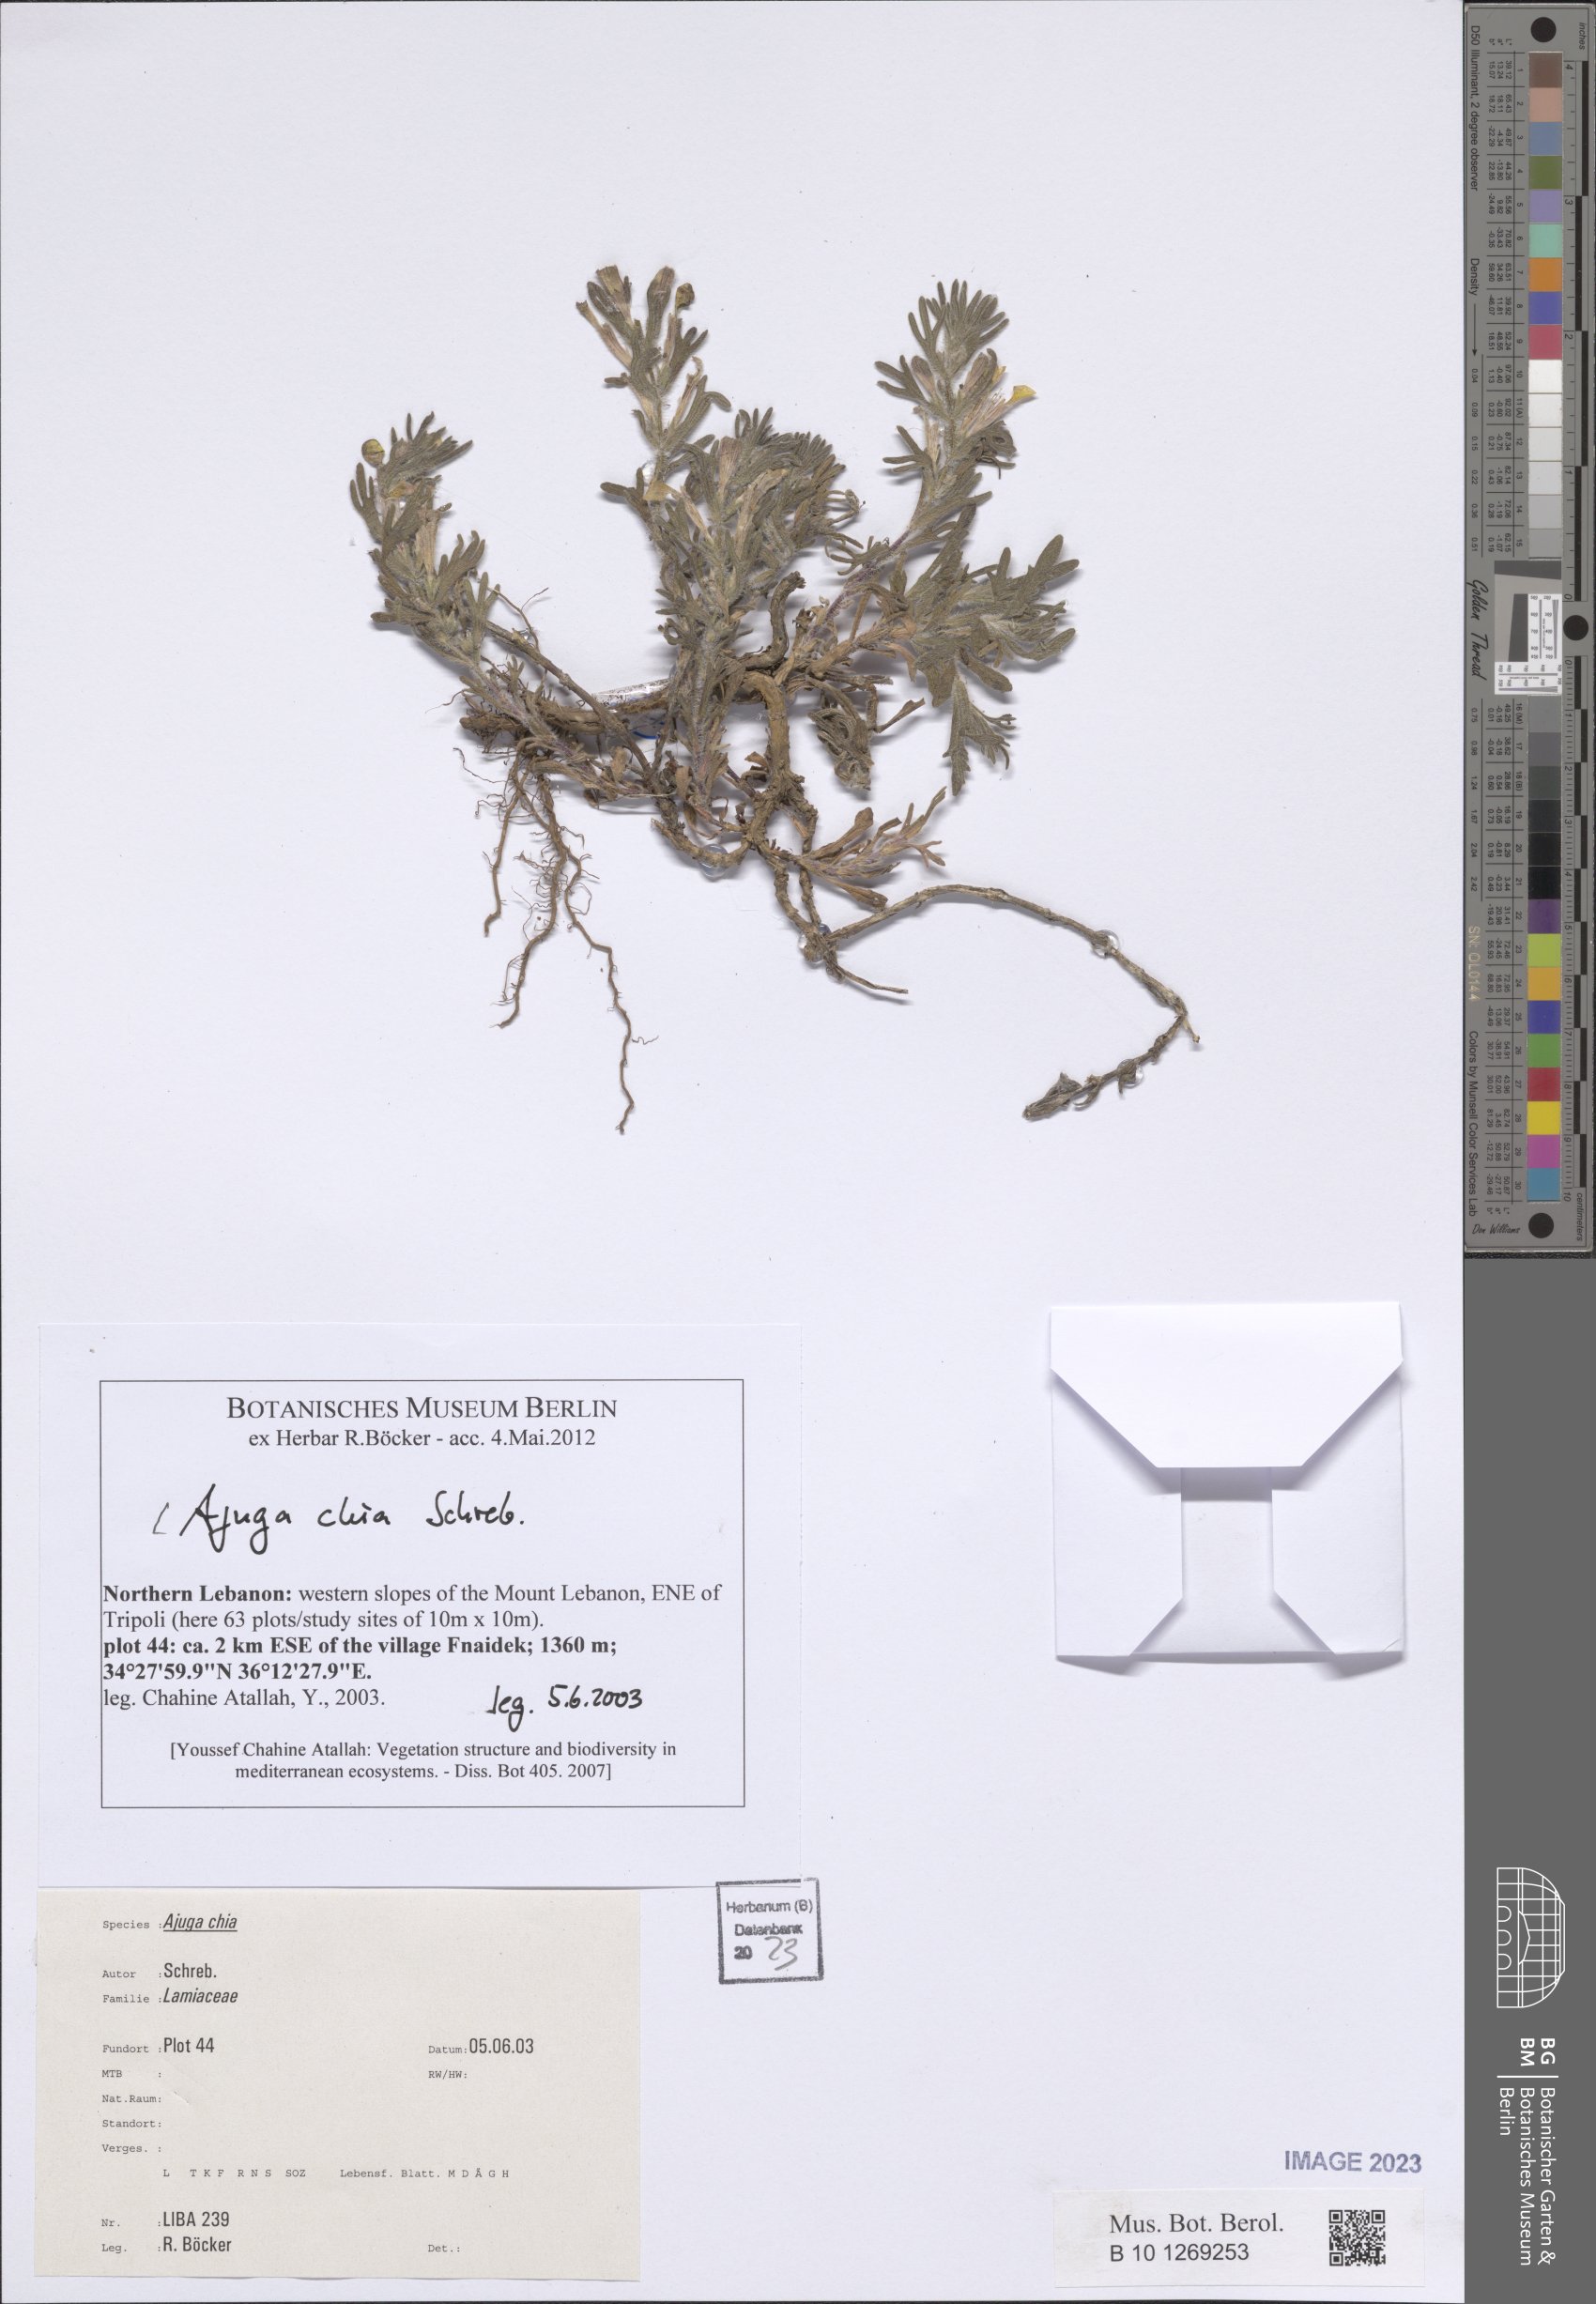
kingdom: Plantae
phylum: Tracheophyta
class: Magnoliopsida
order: Lamiales
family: Lamiaceae
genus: Ajuga
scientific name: Ajuga chamaepitys
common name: Ground-pine
